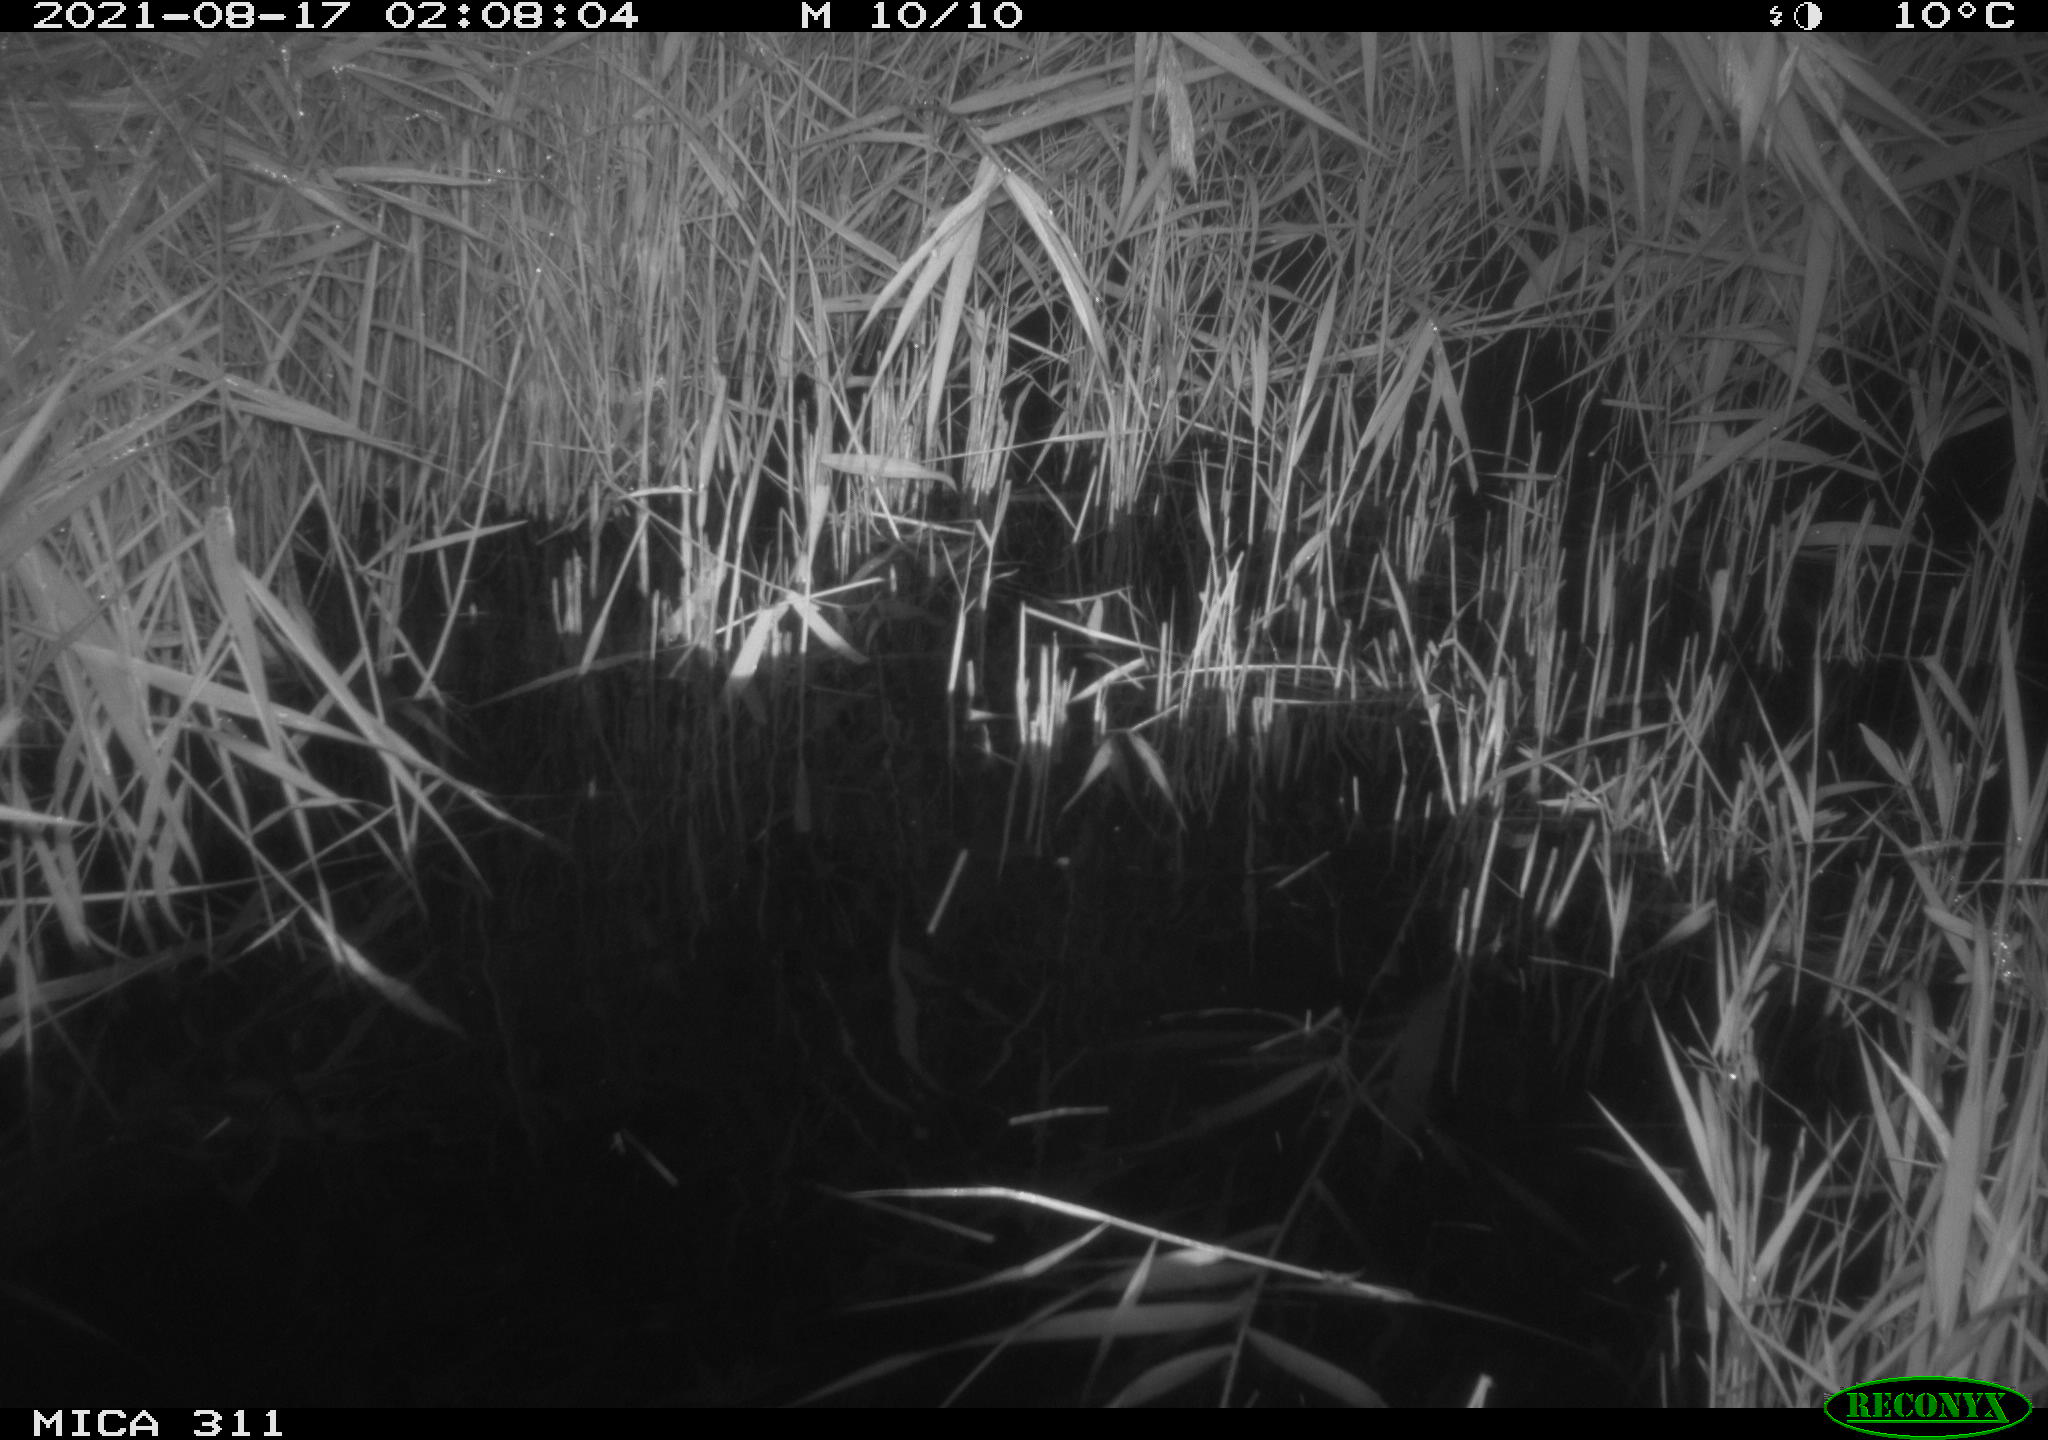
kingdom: Animalia
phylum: Chordata
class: Mammalia
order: Rodentia
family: Muridae
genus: Rattus
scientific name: Rattus norvegicus
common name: Brown rat
